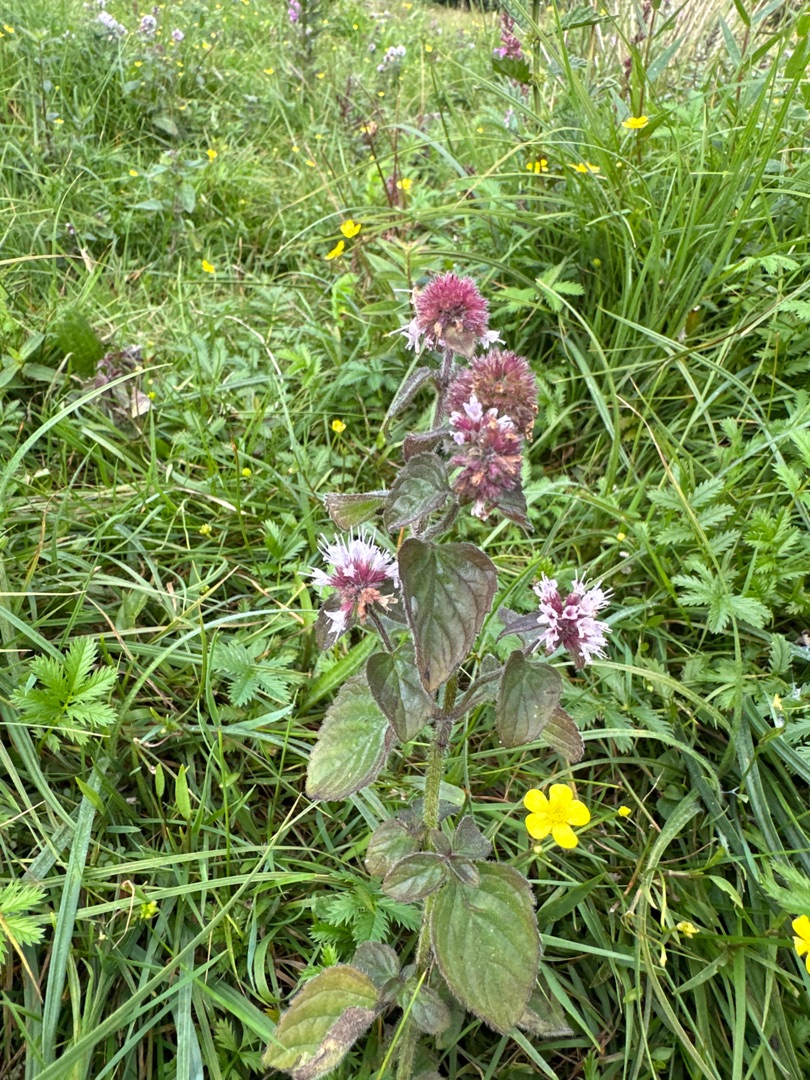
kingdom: Plantae
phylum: Tracheophyta
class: Magnoliopsida
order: Lamiales
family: Lamiaceae
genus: Mentha
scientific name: Mentha aquatica
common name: Vand-mynte
